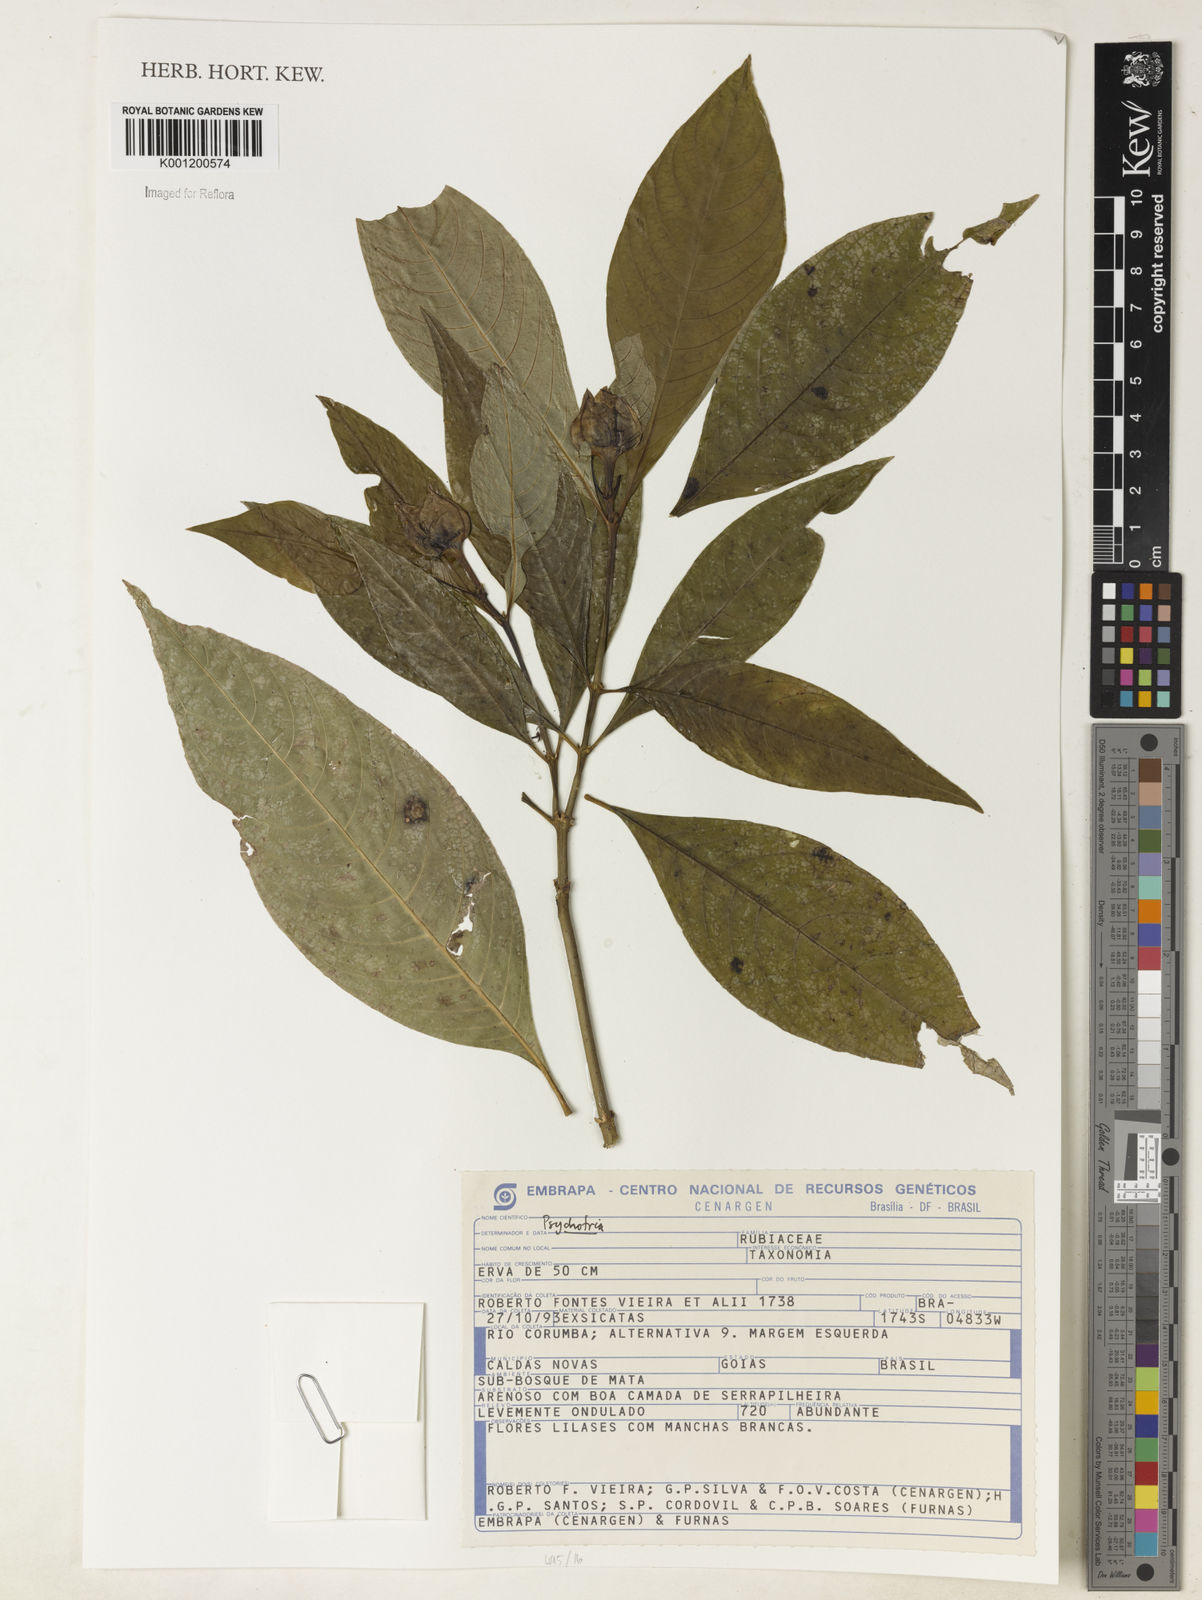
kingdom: Plantae
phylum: Tracheophyta
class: Magnoliopsida
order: Gentianales
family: Rubiaceae
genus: Psychotria
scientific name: Psychotria
